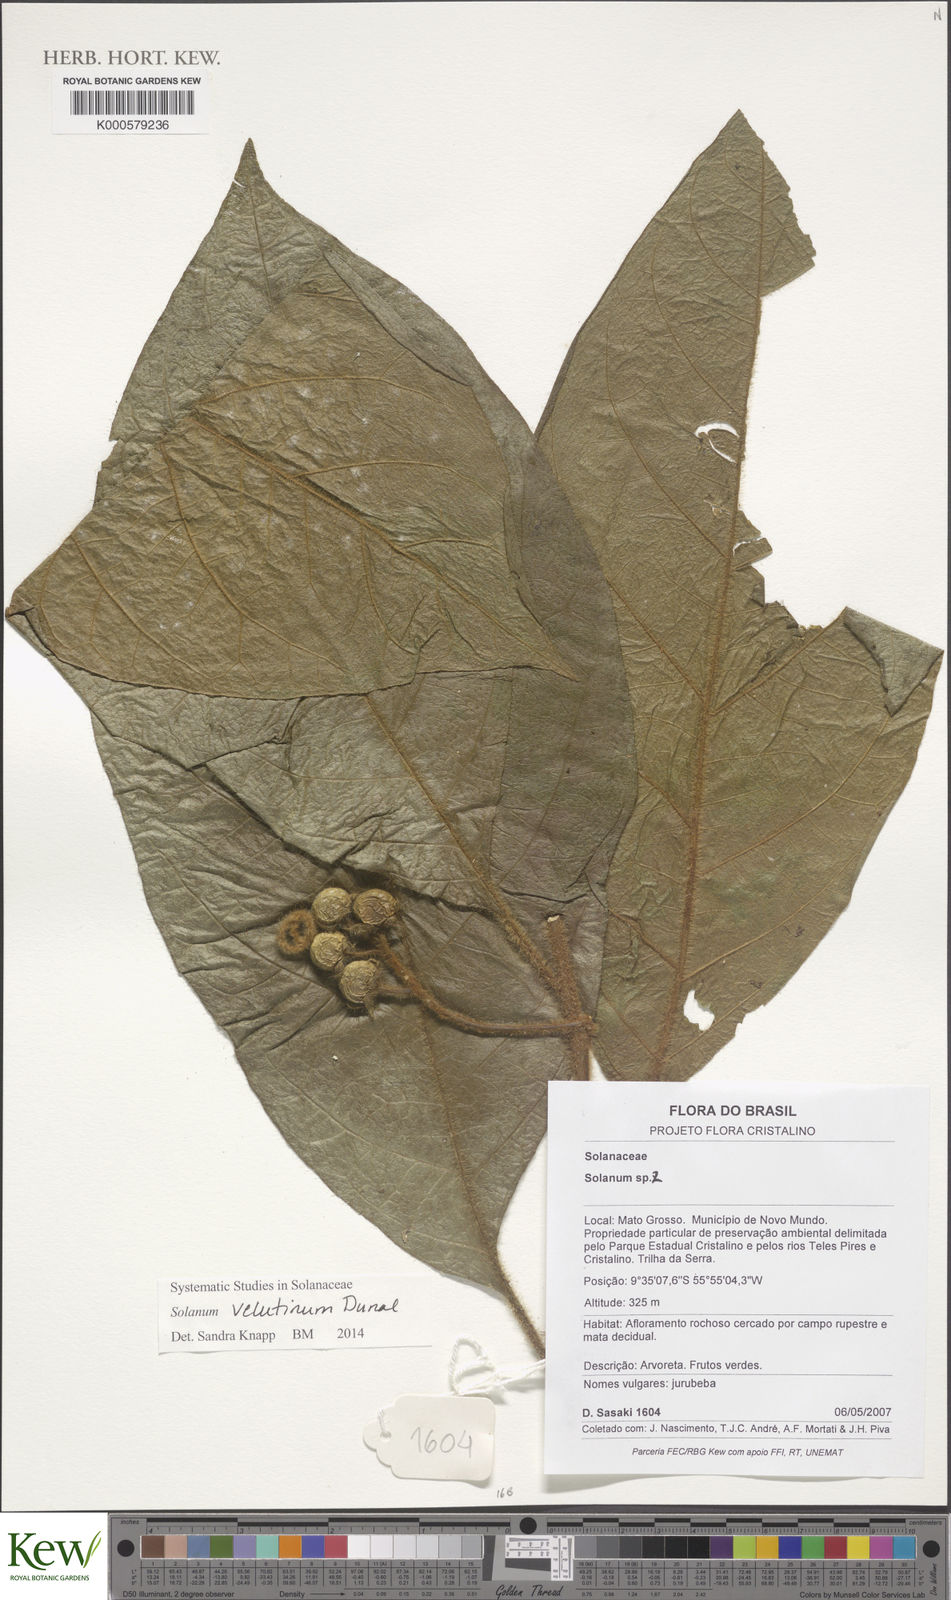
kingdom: Plantae
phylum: Tracheophyta
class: Magnoliopsida
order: Solanales
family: Solanaceae
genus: Solanum
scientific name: Solanum
